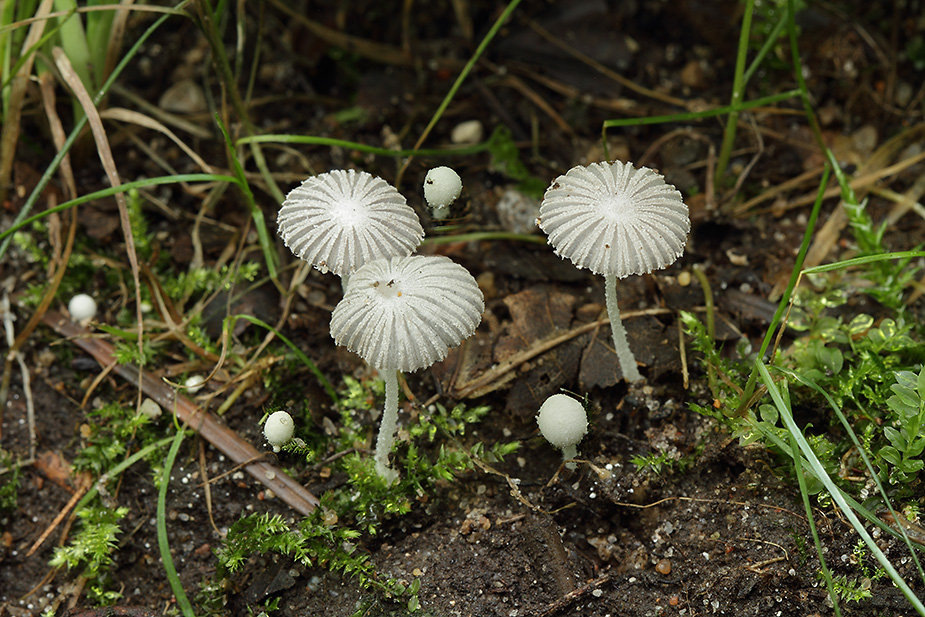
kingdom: Fungi
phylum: Basidiomycota
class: Agaricomycetes
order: Agaricales
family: Psathyrellaceae
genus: Coprinopsis
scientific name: Coprinopsis cortinata
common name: slør-blækhat
